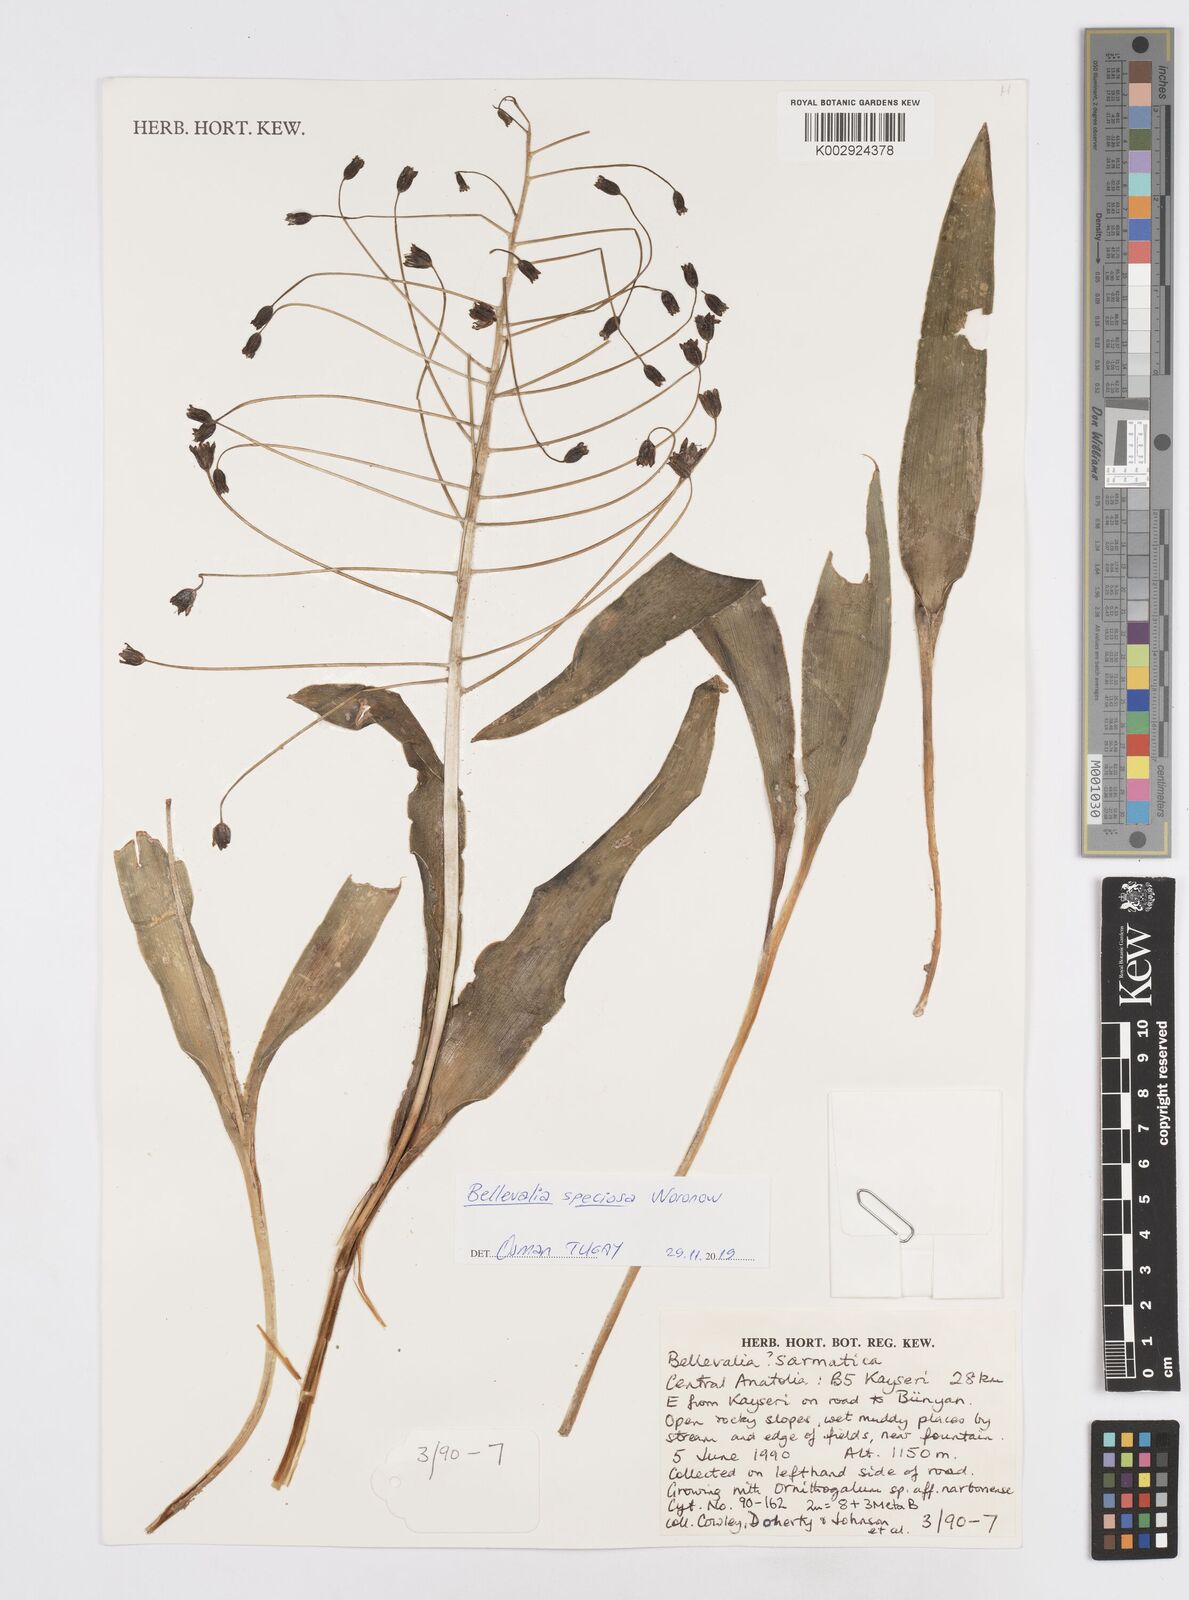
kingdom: Plantae
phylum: Tracheophyta
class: Liliopsida
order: Asparagales
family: Asparagaceae
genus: Bellevalia
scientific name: Bellevalia speciosa
